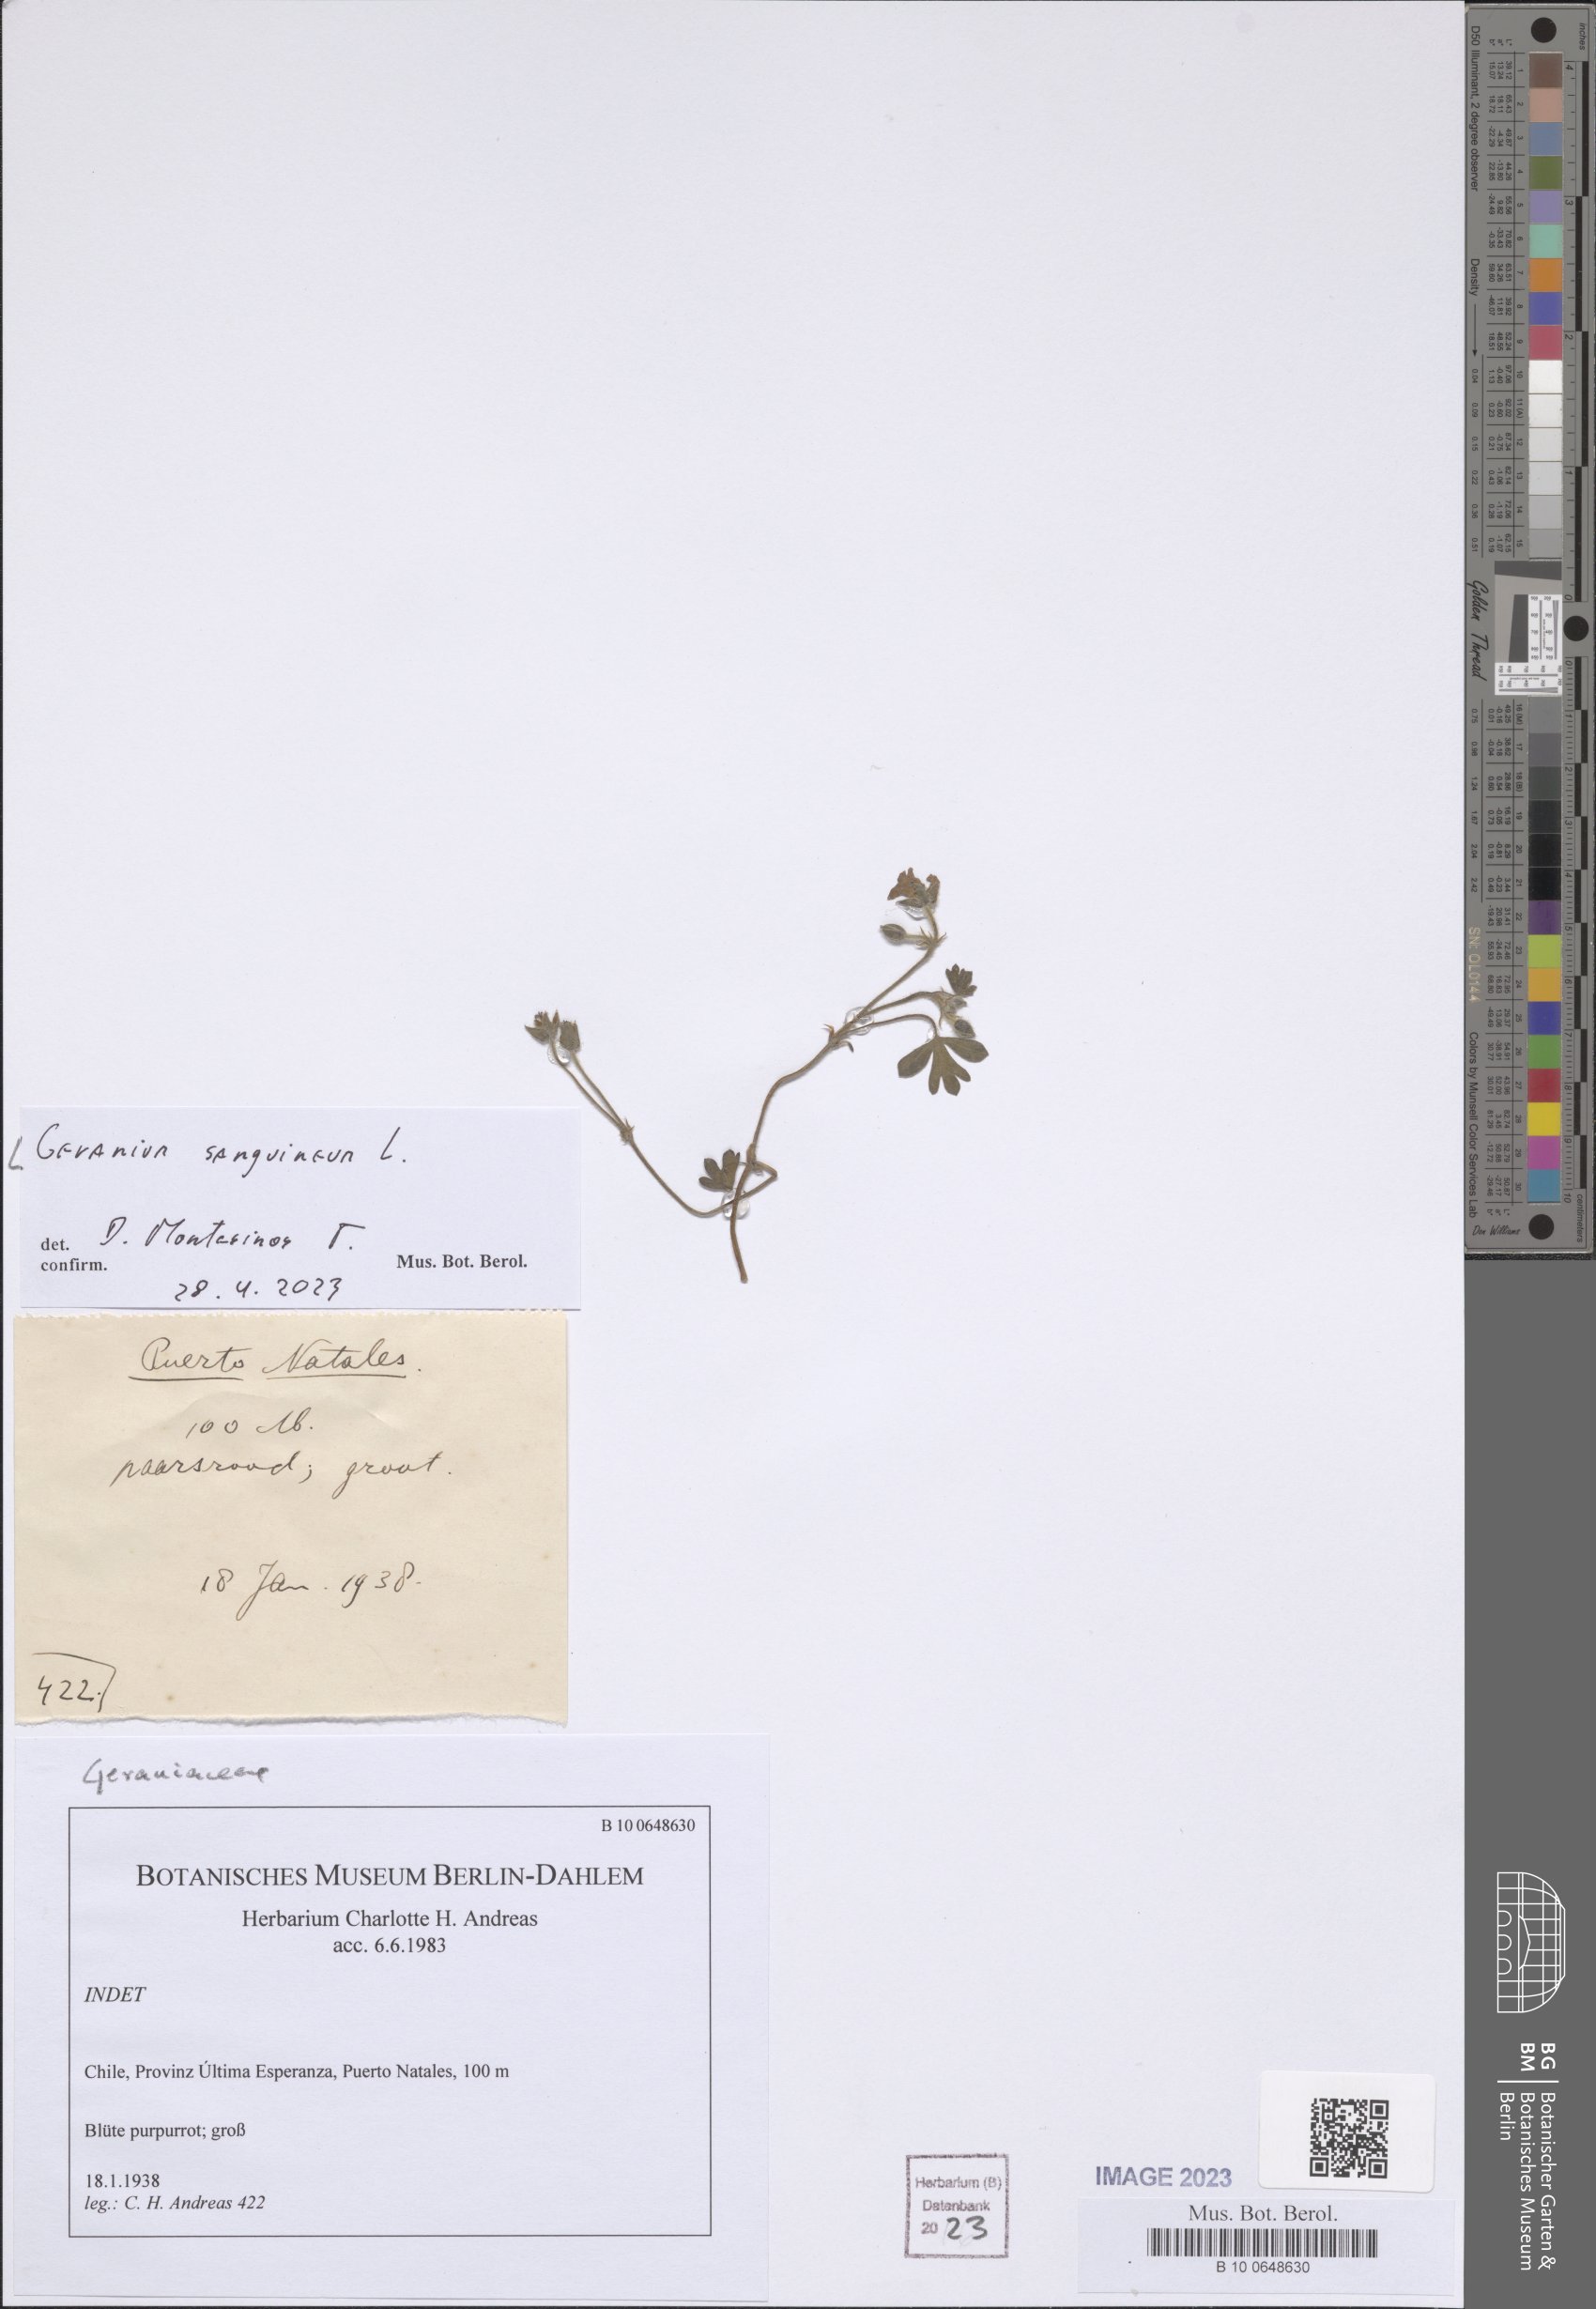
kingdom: Plantae
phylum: Tracheophyta
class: Magnoliopsida
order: Geraniales
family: Geraniaceae
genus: Geranium
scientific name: Geranium sanguineum
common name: Bloody crane's-bill
